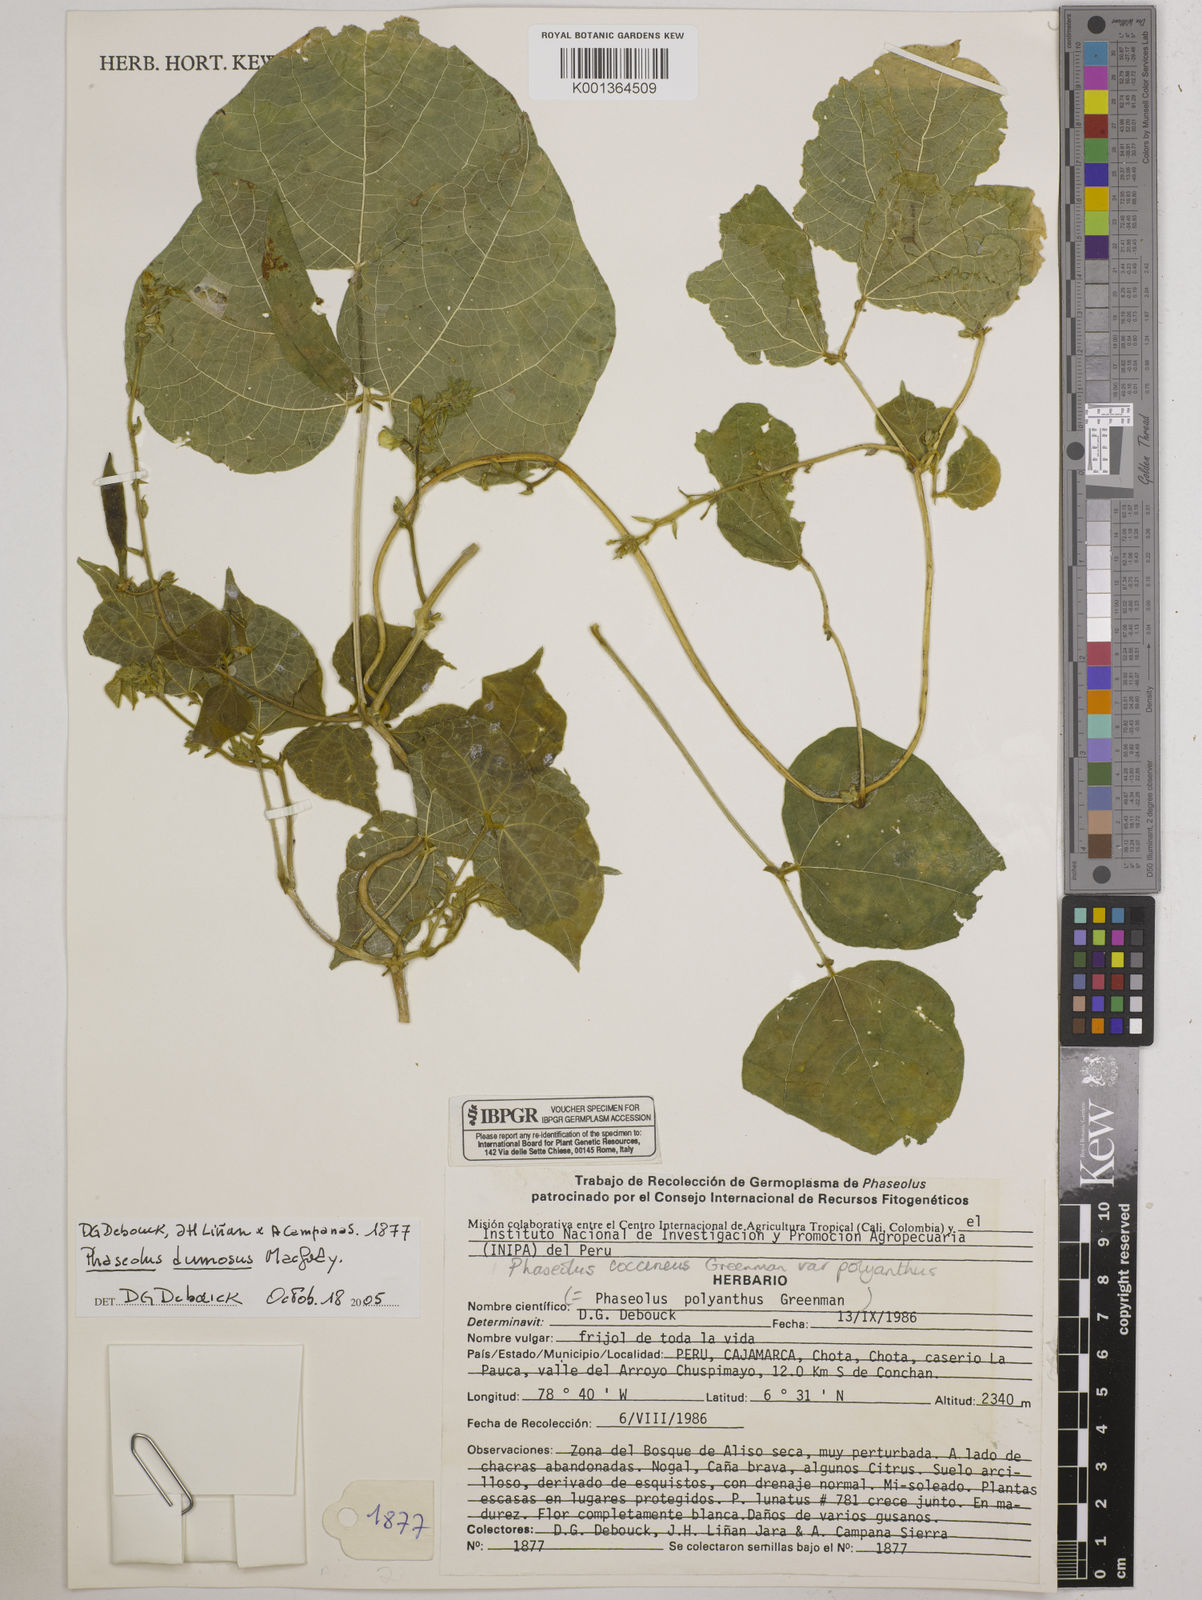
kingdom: Plantae
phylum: Tracheophyta
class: Magnoliopsida
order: Fabales
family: Fabaceae
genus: Phaseolus
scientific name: Phaseolus dumosus
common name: Year bean
